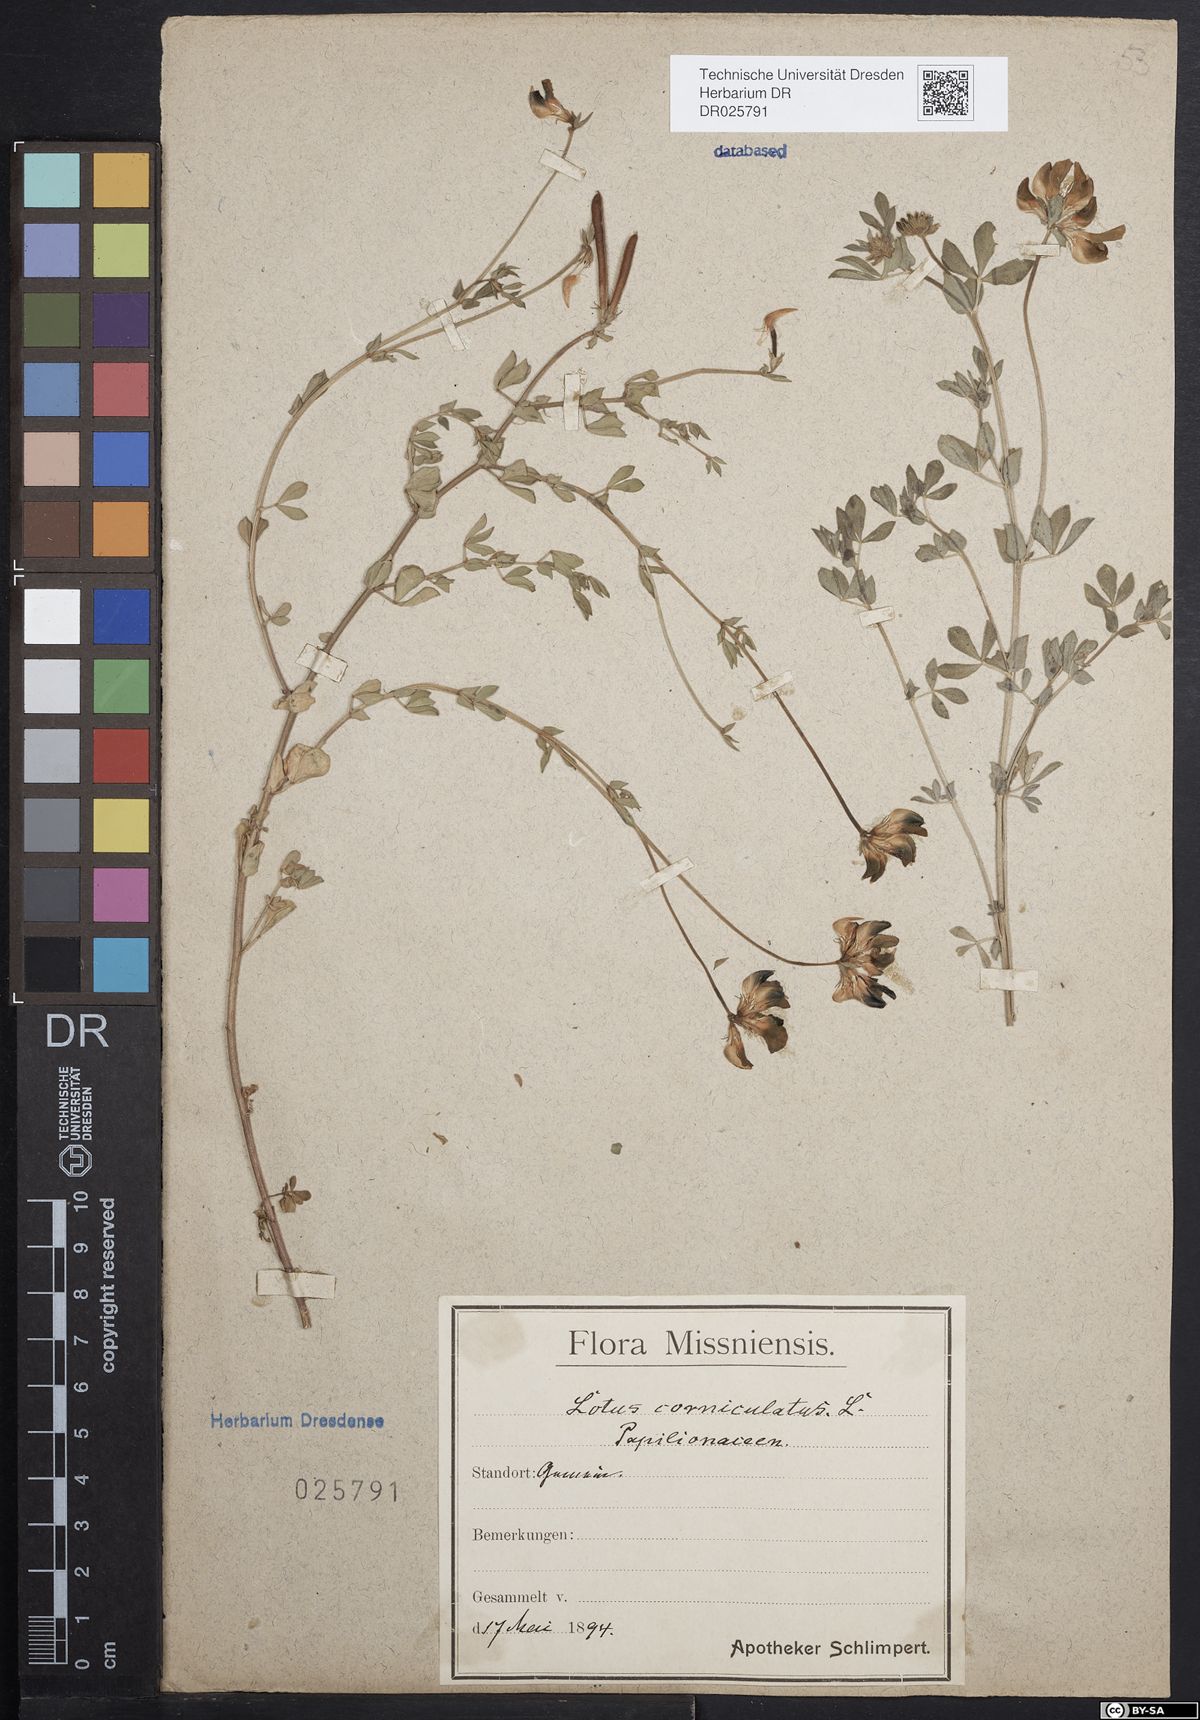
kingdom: Plantae
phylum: Tracheophyta
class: Magnoliopsida
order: Fabales
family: Fabaceae
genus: Lotus
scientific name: Lotus corniculatus
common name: Common bird's-foot-trefoil
